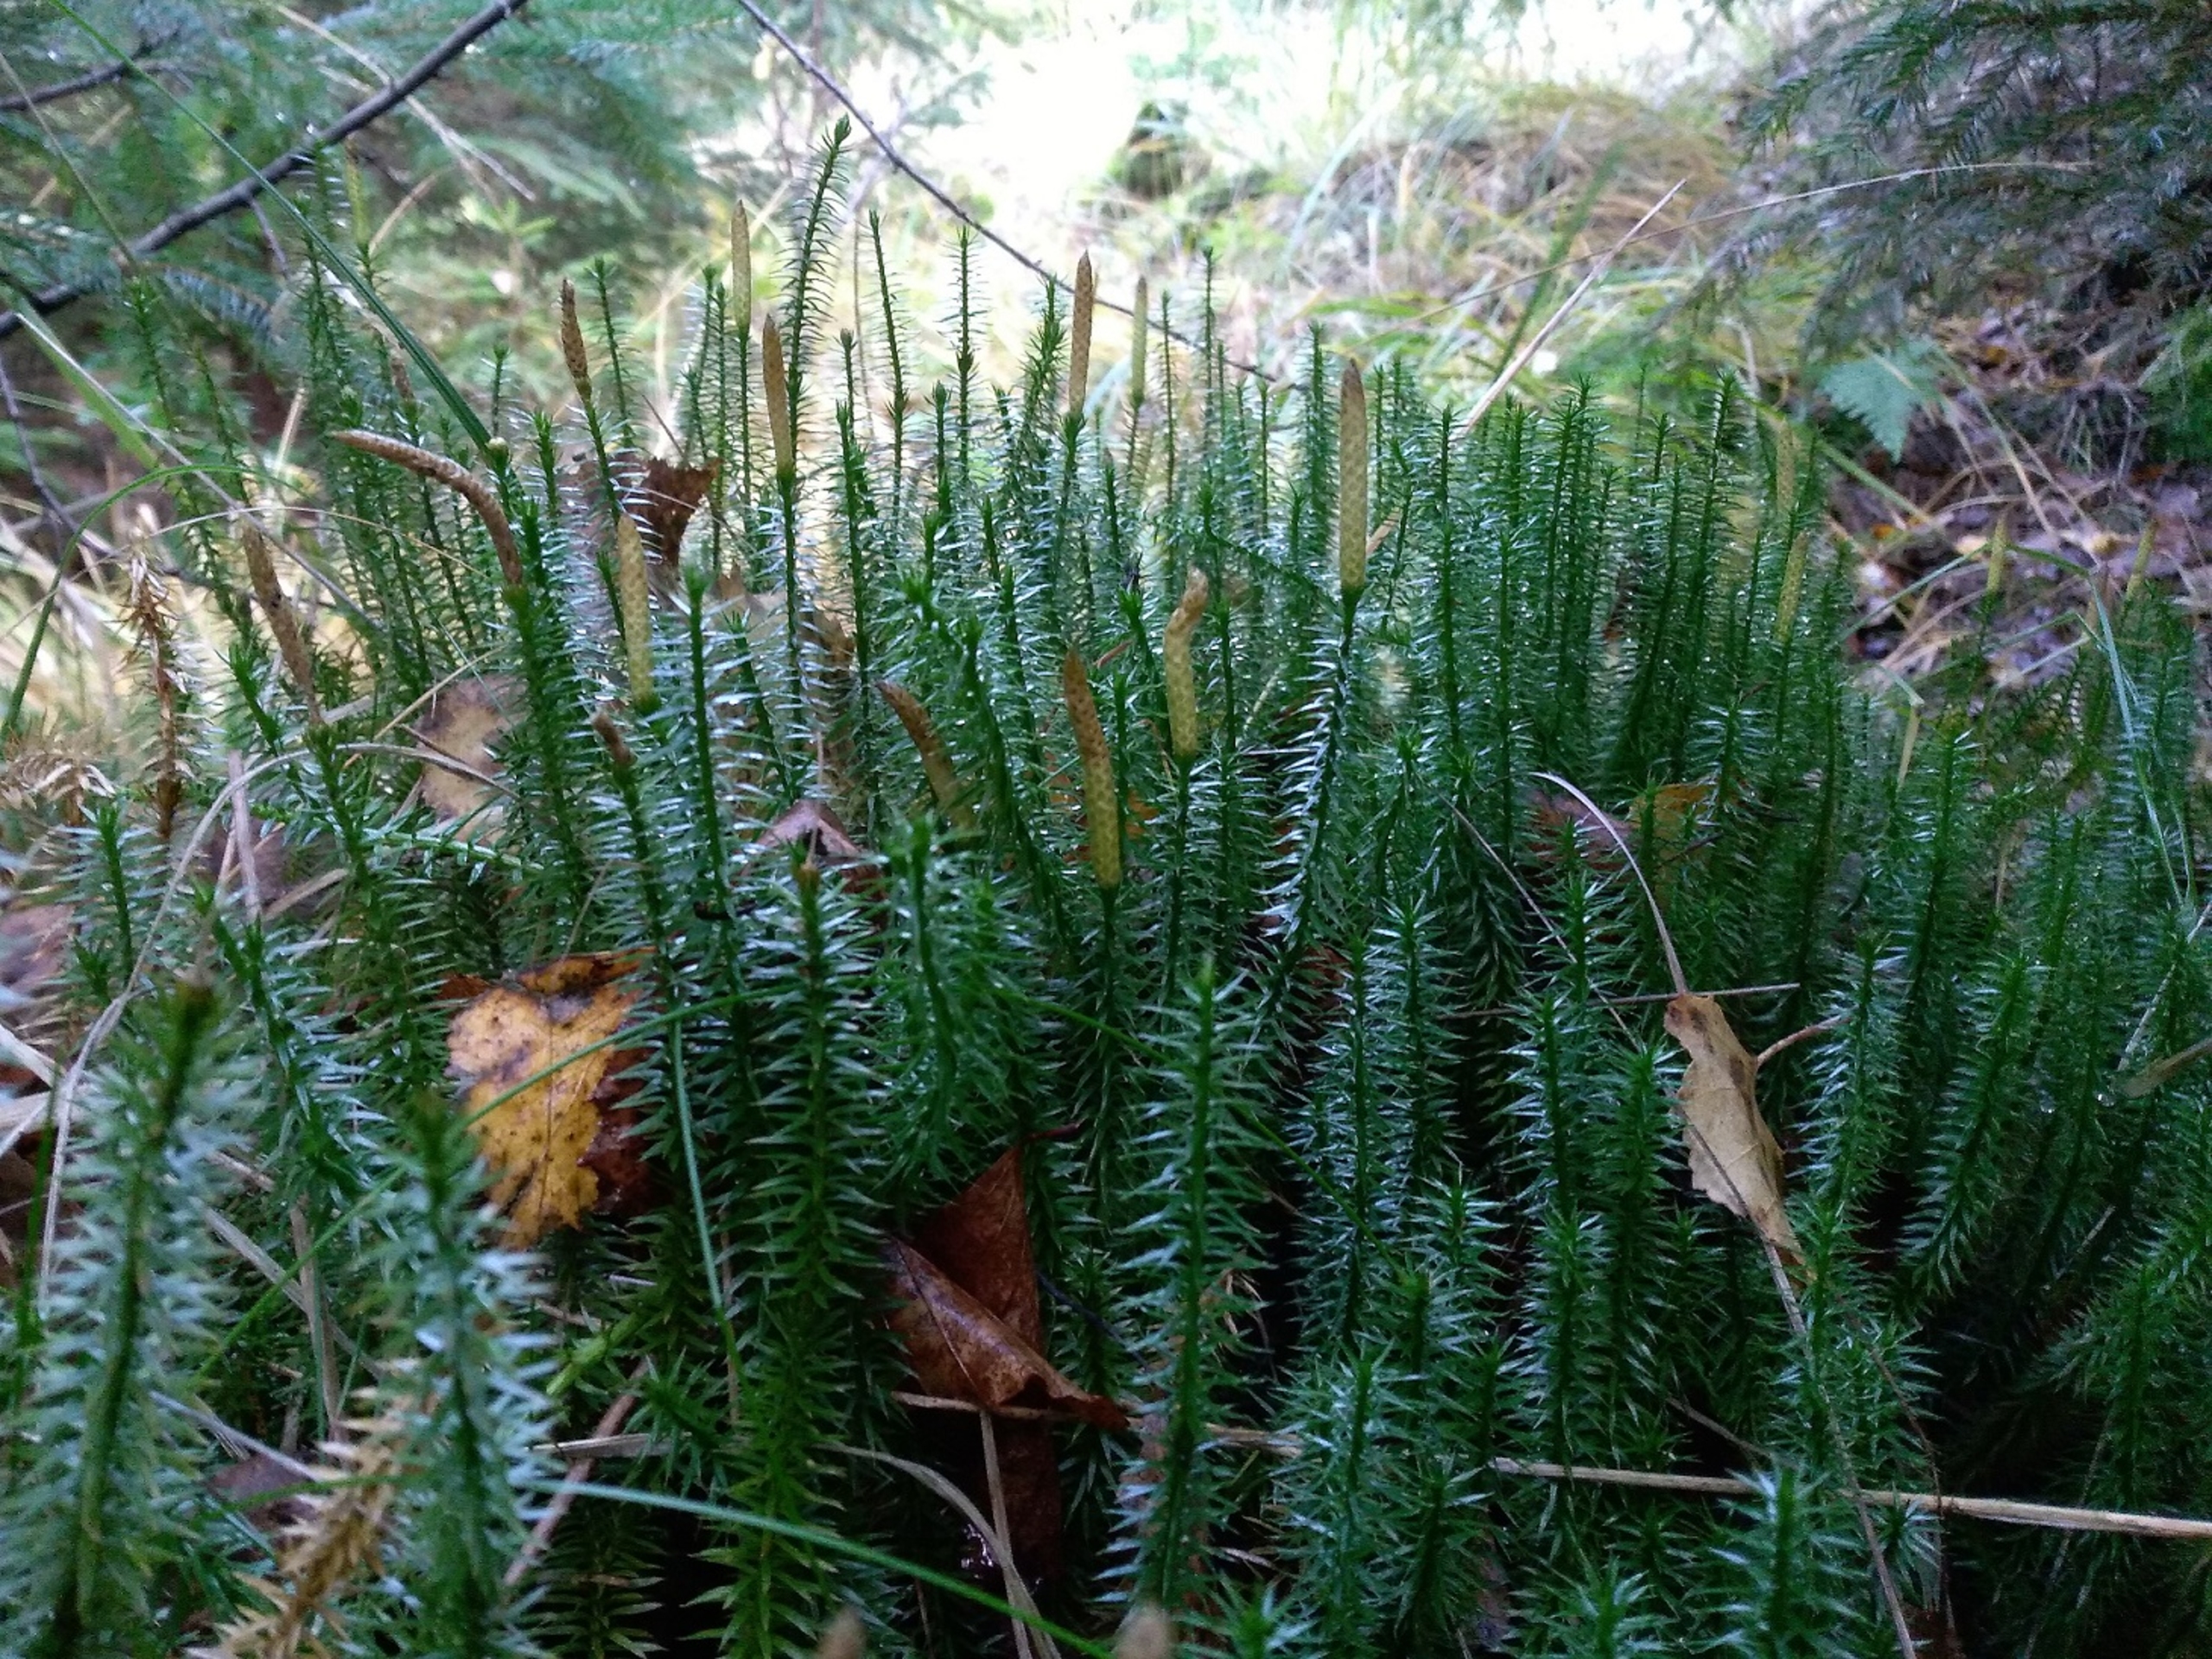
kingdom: Plantae
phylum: Tracheophyta
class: Lycopodiopsida
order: Lycopodiales
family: Lycopodiaceae
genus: Spinulum
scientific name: Spinulum annotinum
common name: Femradet ulvefod
